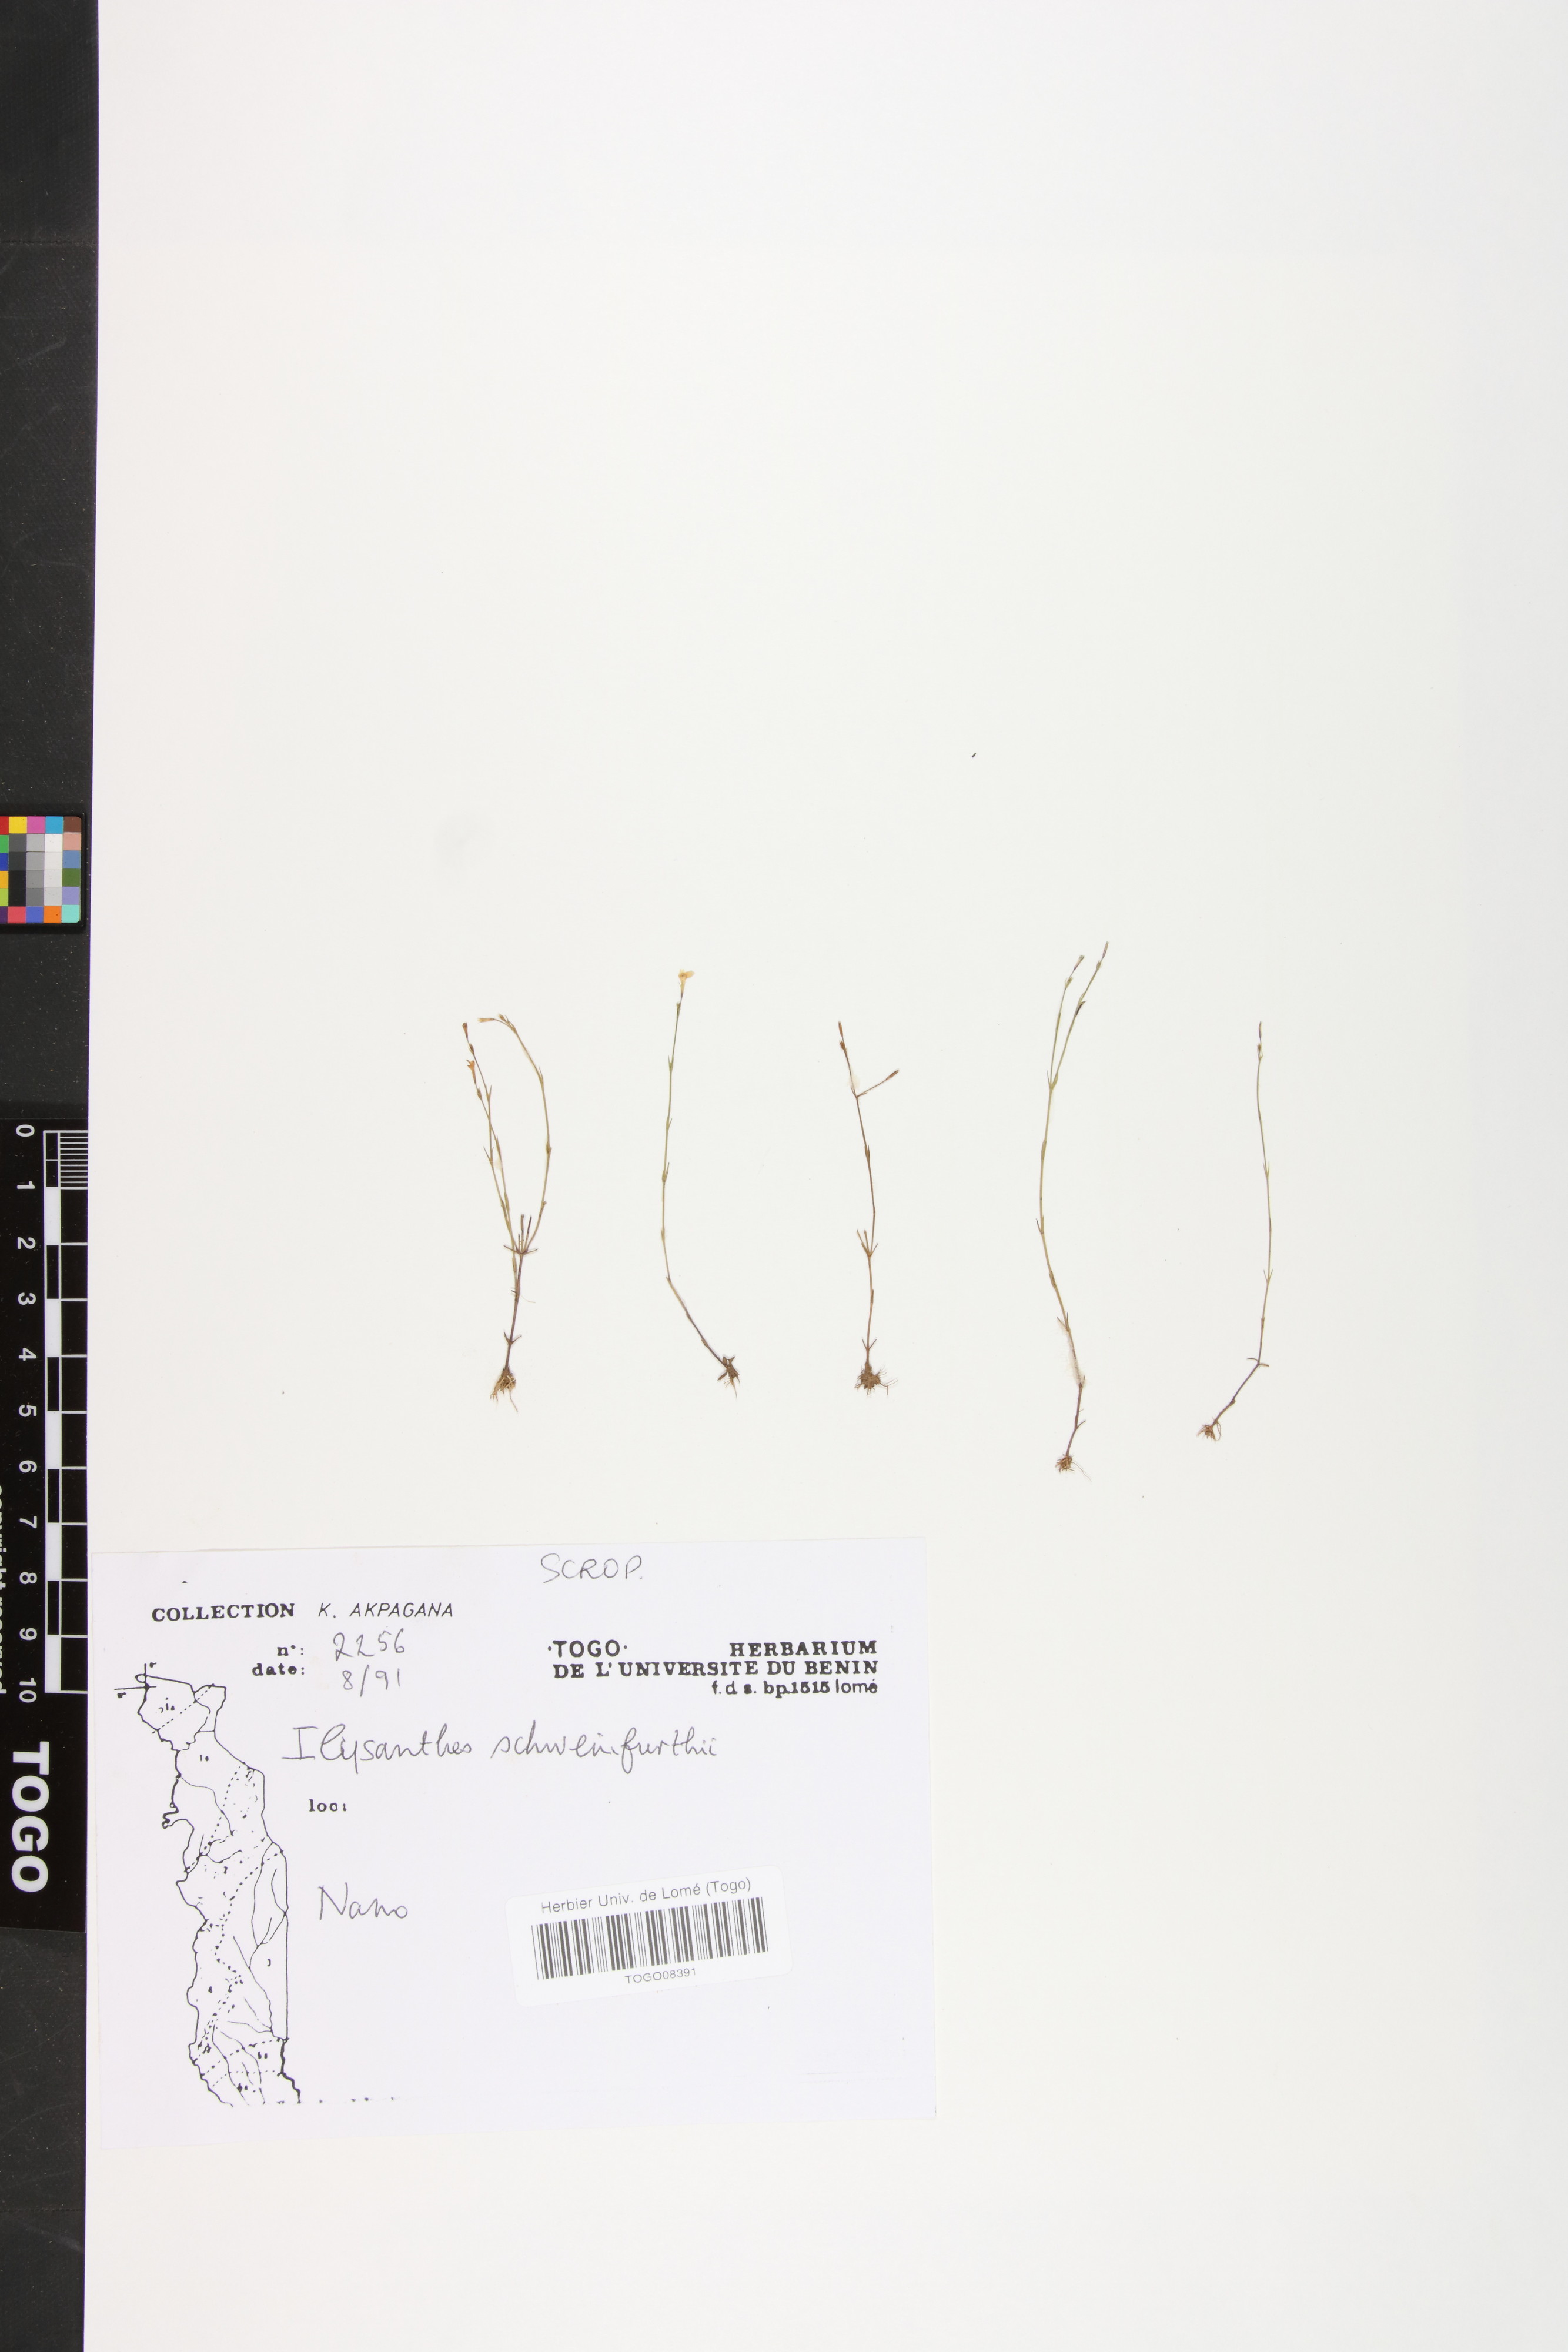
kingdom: Plantae
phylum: Tracheophyta
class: Magnoliopsida
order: Lamiales
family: Linderniaceae
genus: Linderniella
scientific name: Linderniella trichotoma
